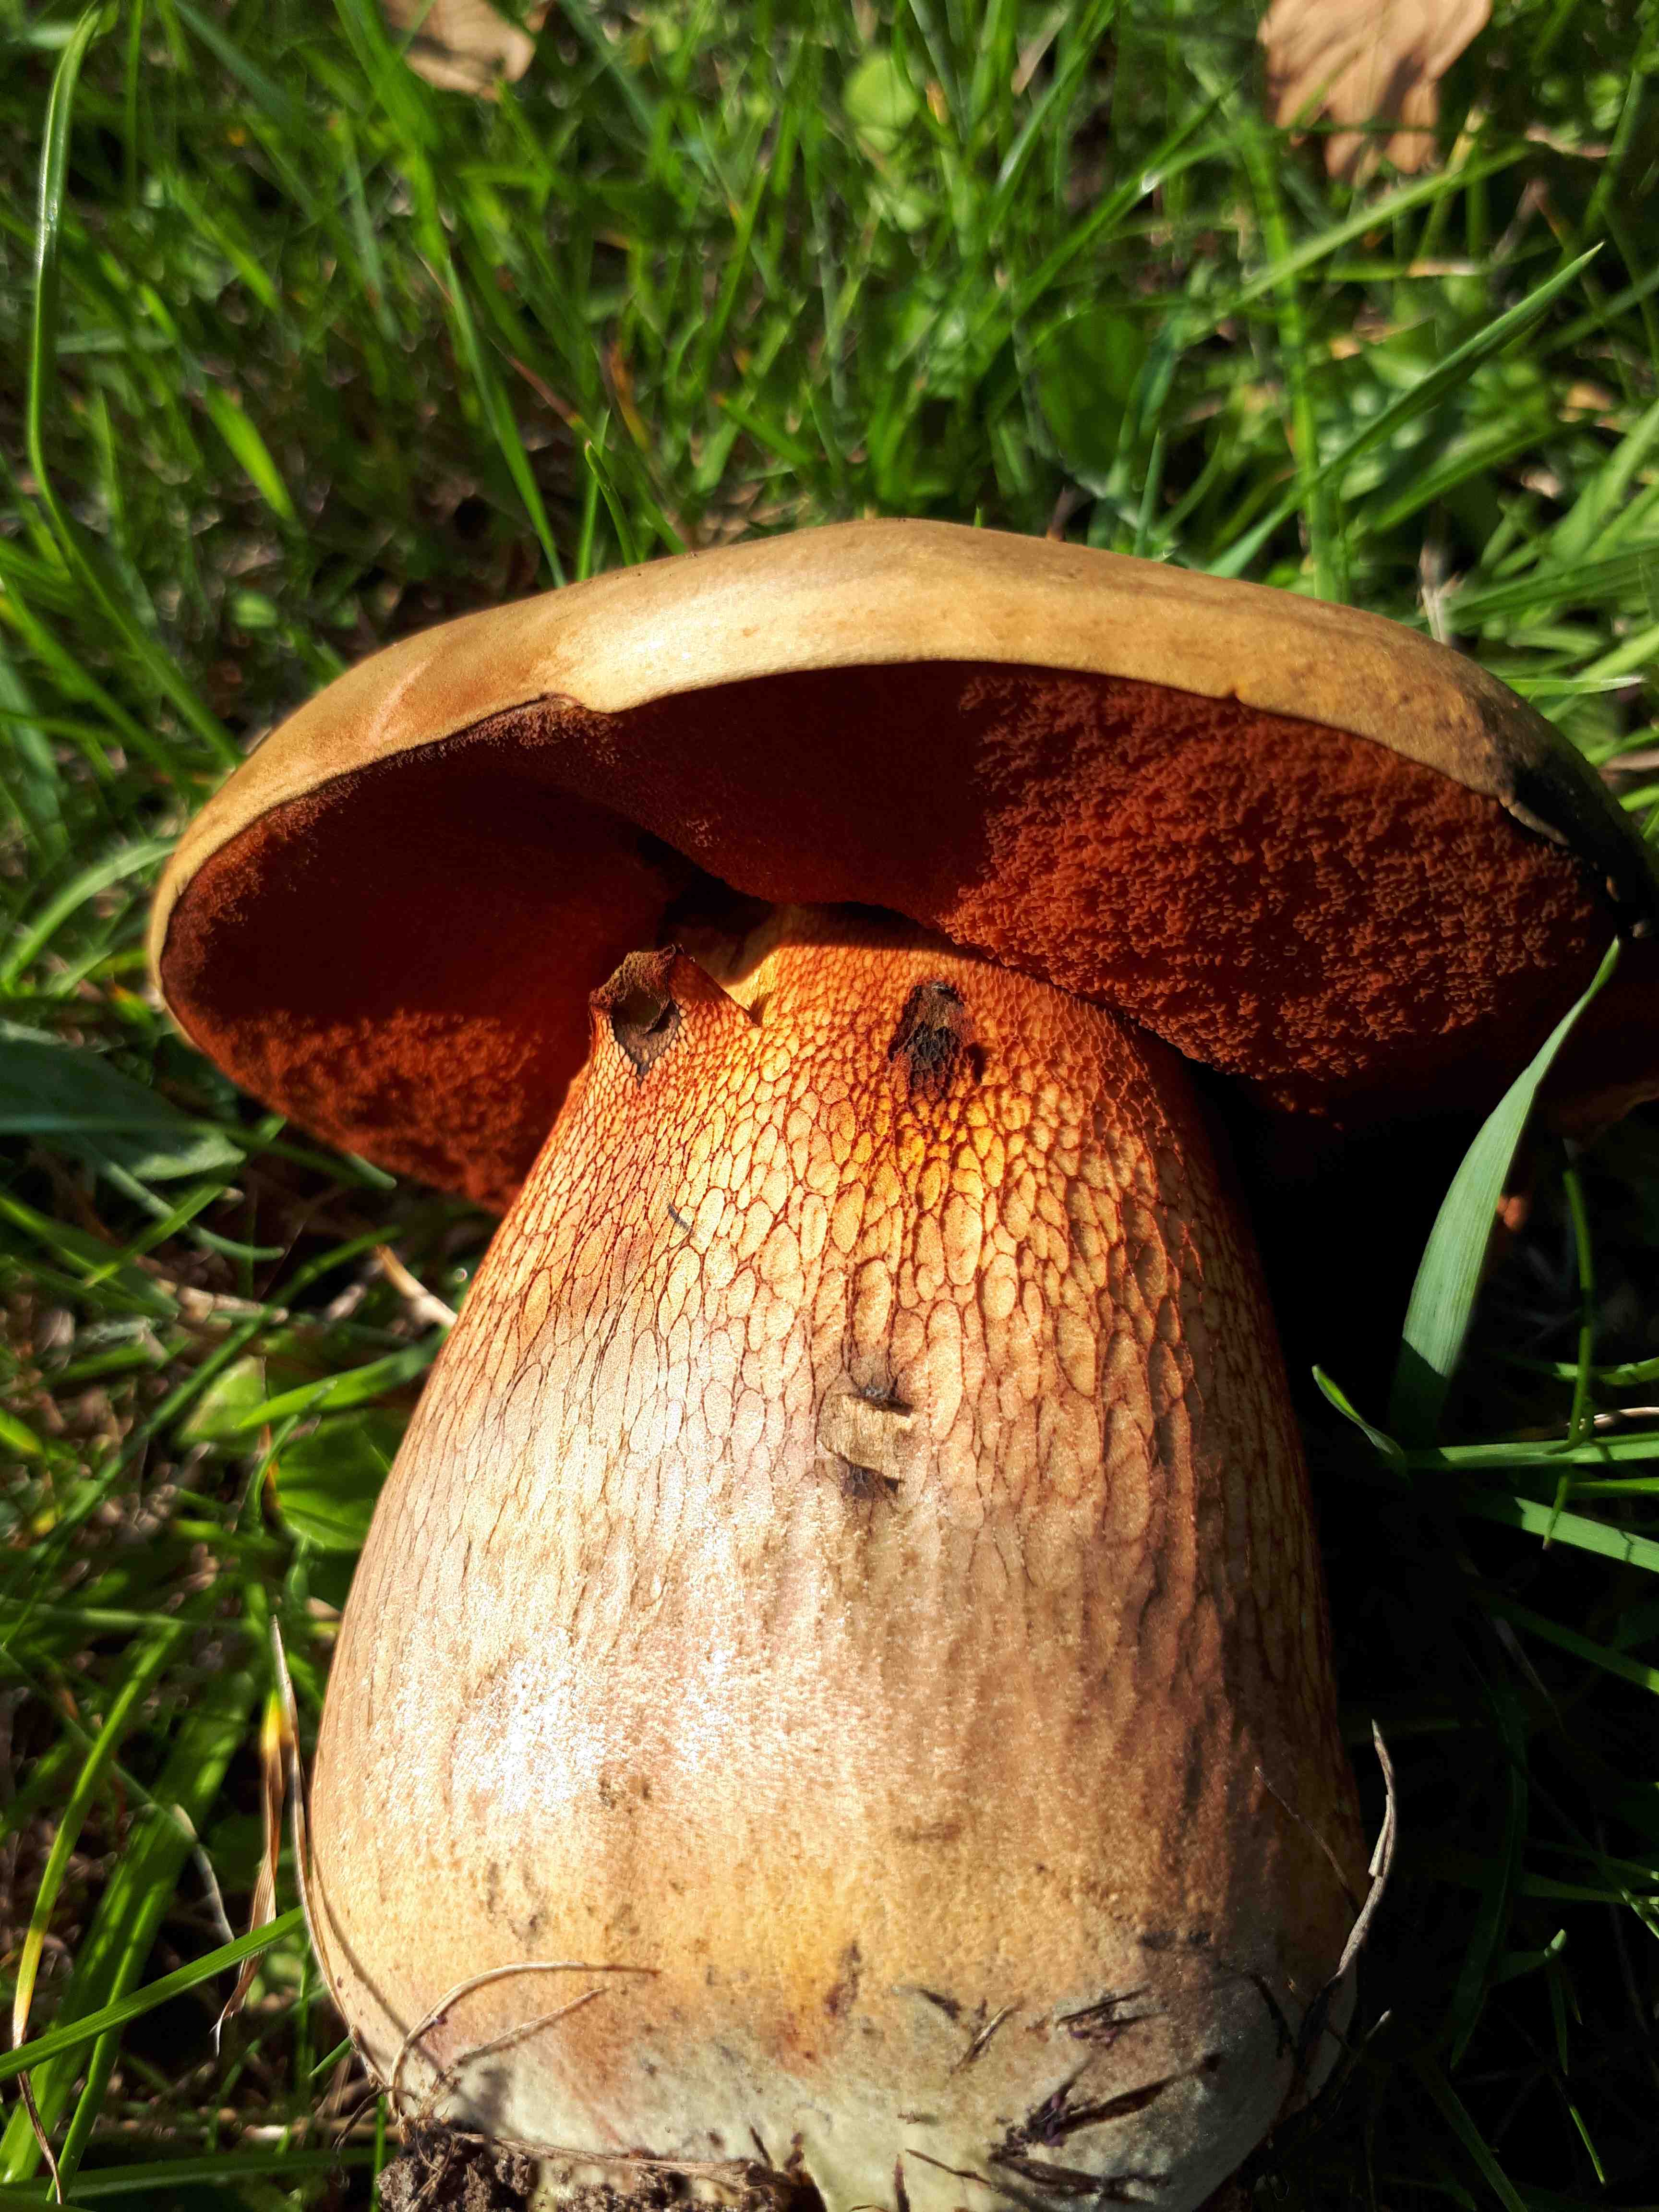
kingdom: Fungi
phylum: Basidiomycota
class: Agaricomycetes
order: Boletales
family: Boletaceae
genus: Suillellus
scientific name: Suillellus luridus
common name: netstokket indigorørhat
